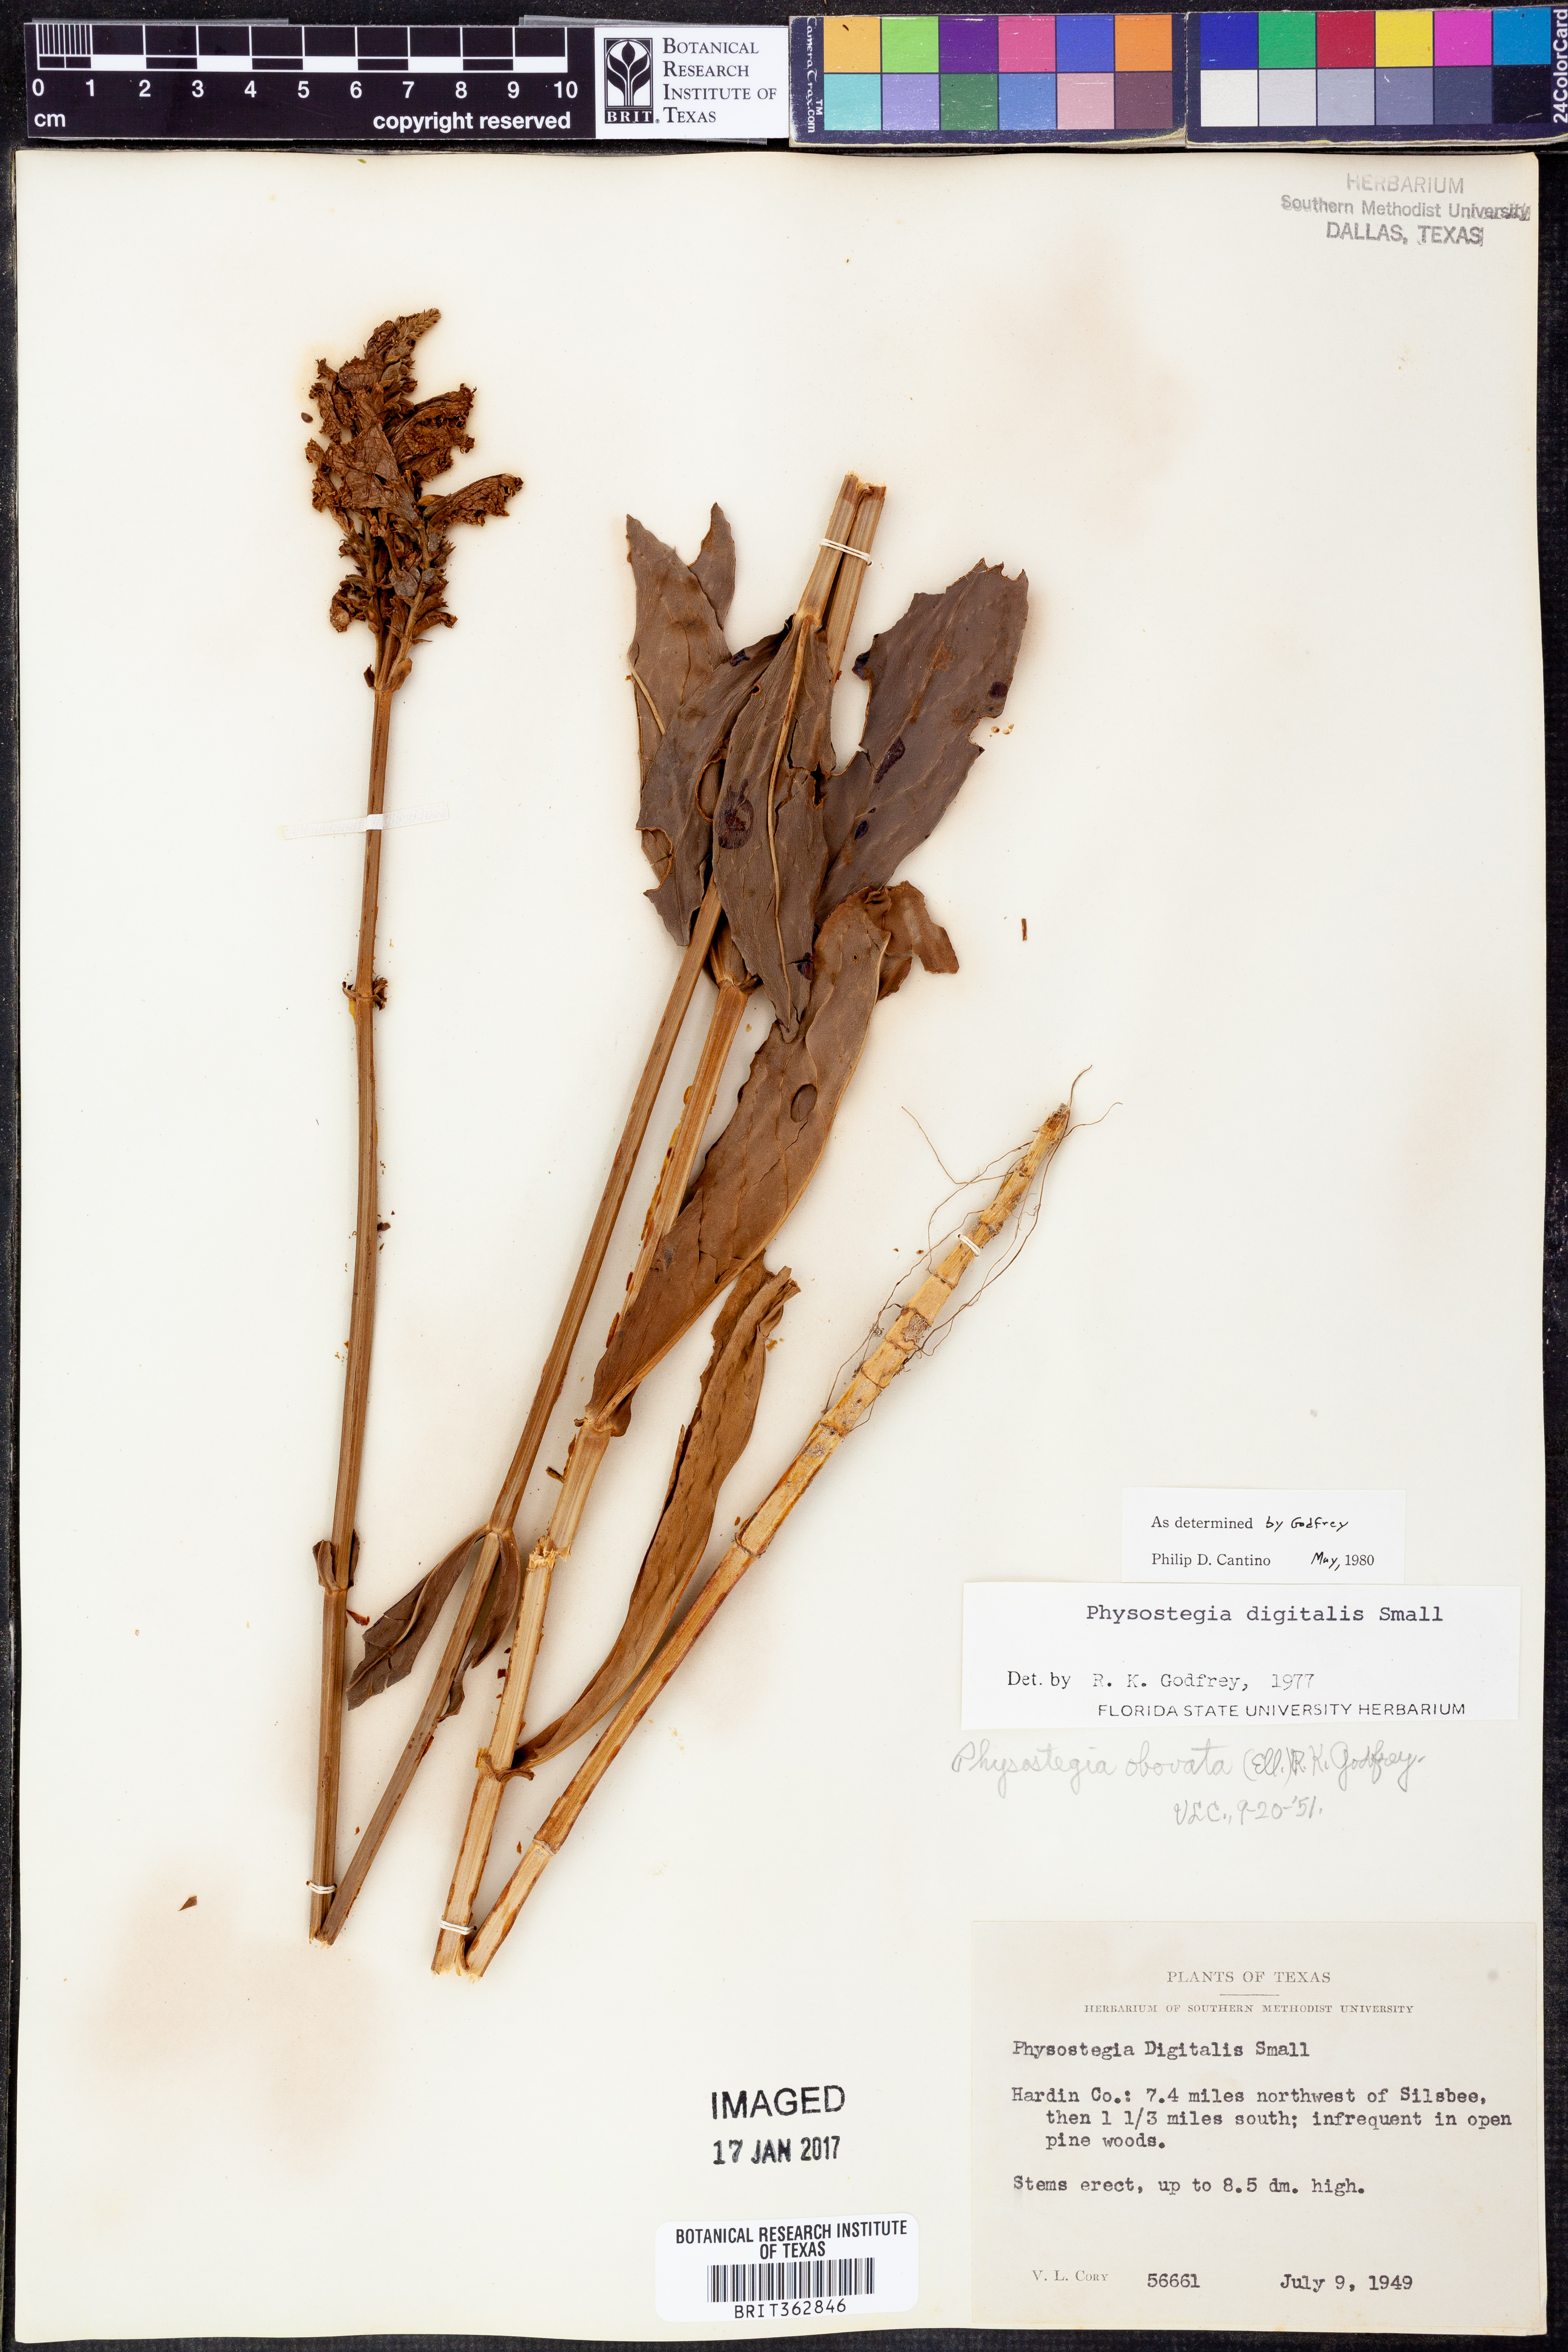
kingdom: Plantae
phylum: Tracheophyta
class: Magnoliopsida
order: Lamiales
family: Lamiaceae
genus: Physostegia
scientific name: Physostegia digitalis
